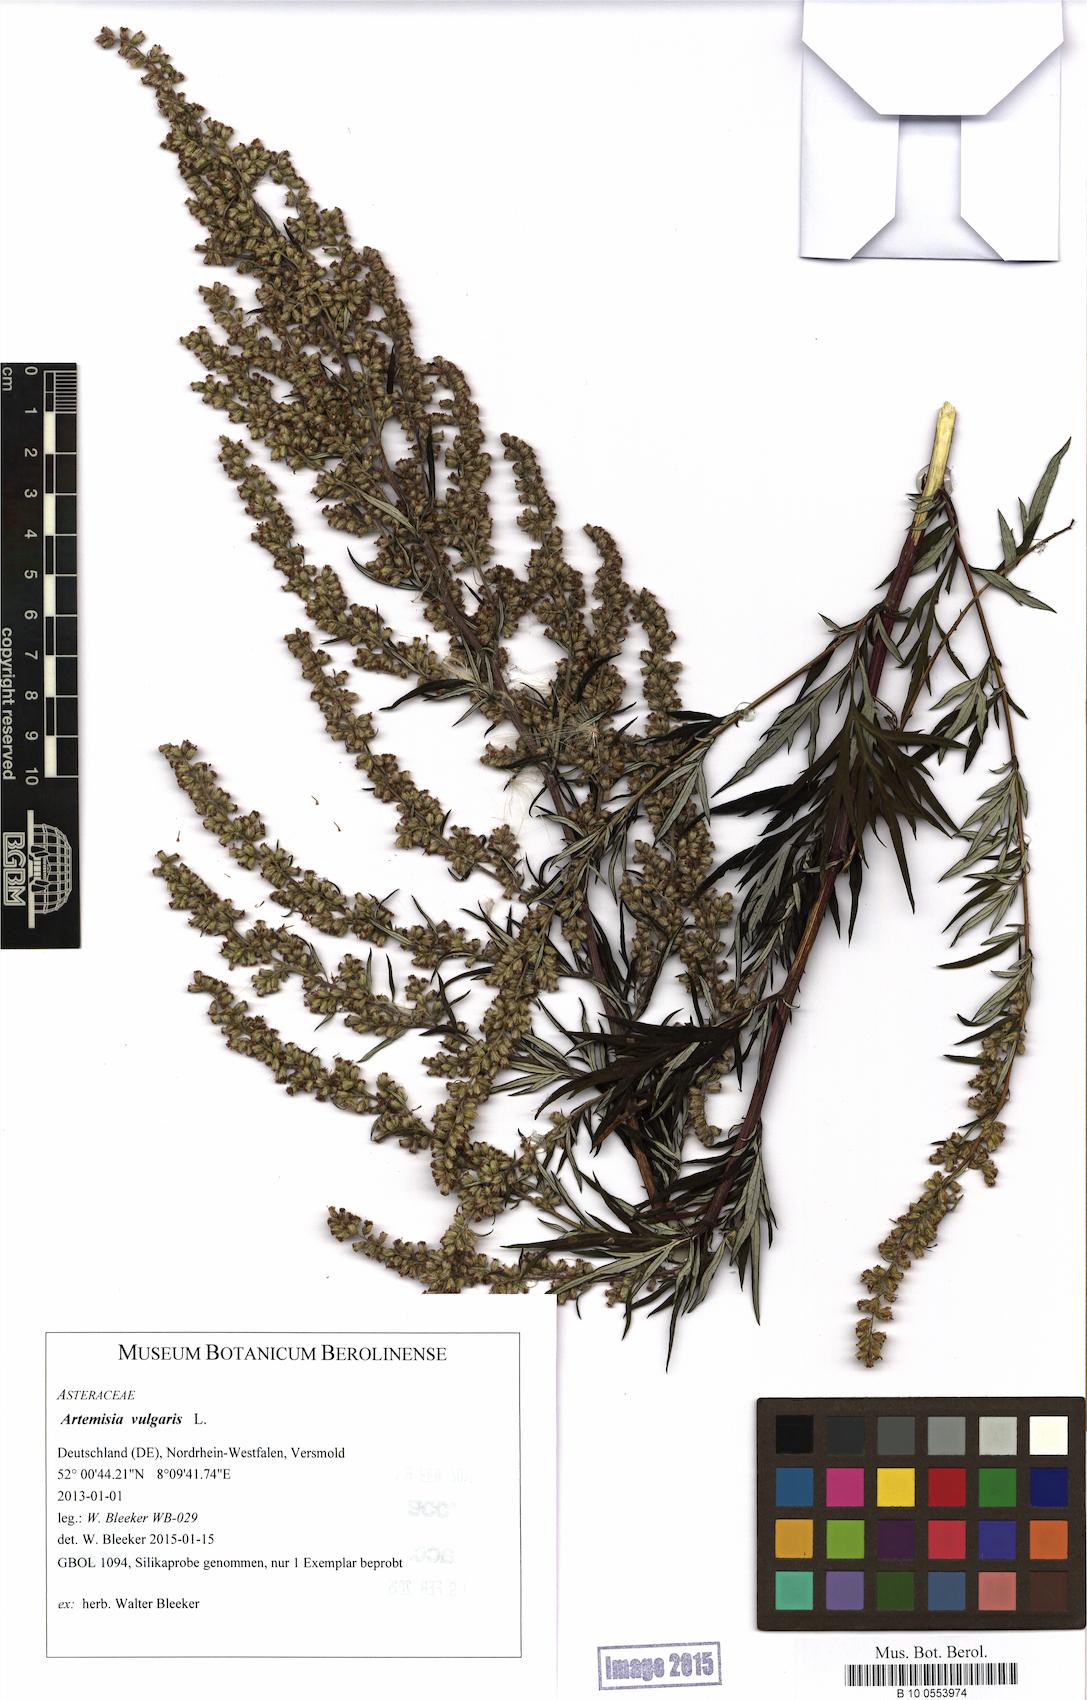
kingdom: Plantae
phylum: Tracheophyta
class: Magnoliopsida
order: Asterales
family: Asteraceae
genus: Artemisia
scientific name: Artemisia vulgaris
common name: Mugwort
